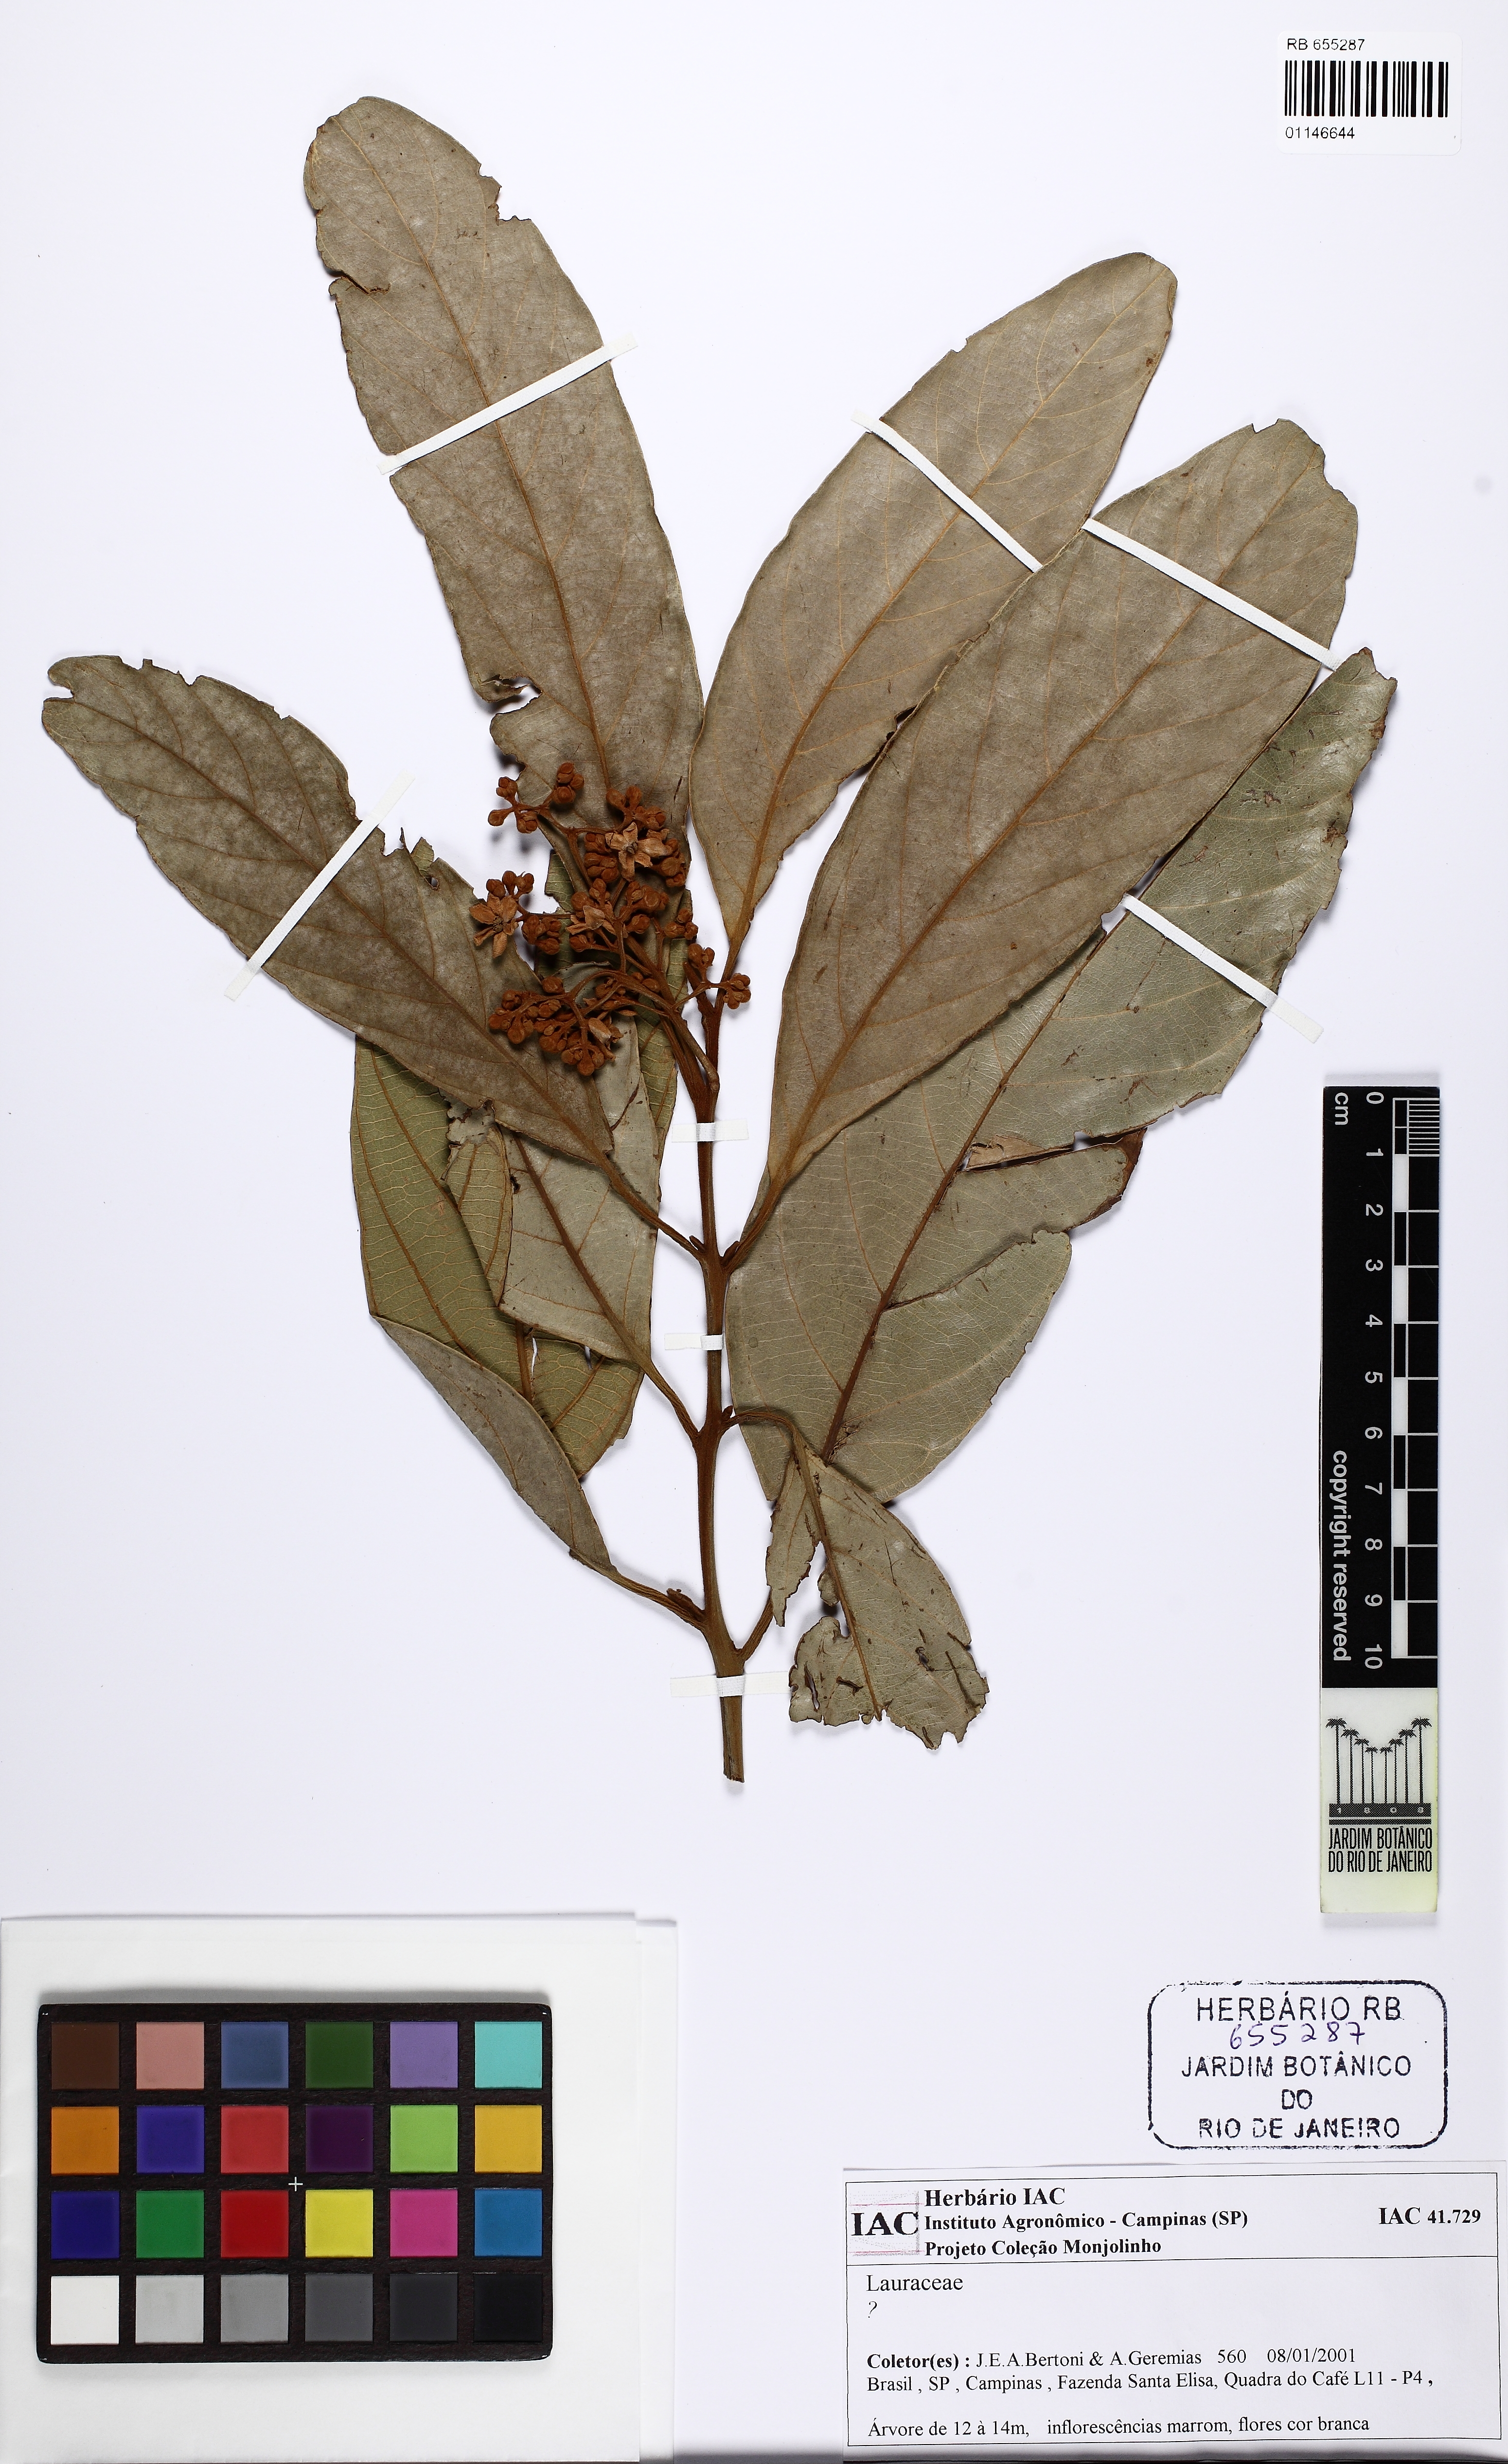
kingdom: Plantae
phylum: Tracheophyta
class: Magnoliopsida
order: Laurales
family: Lauraceae
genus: Nectandra
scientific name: Nectandra villosa
